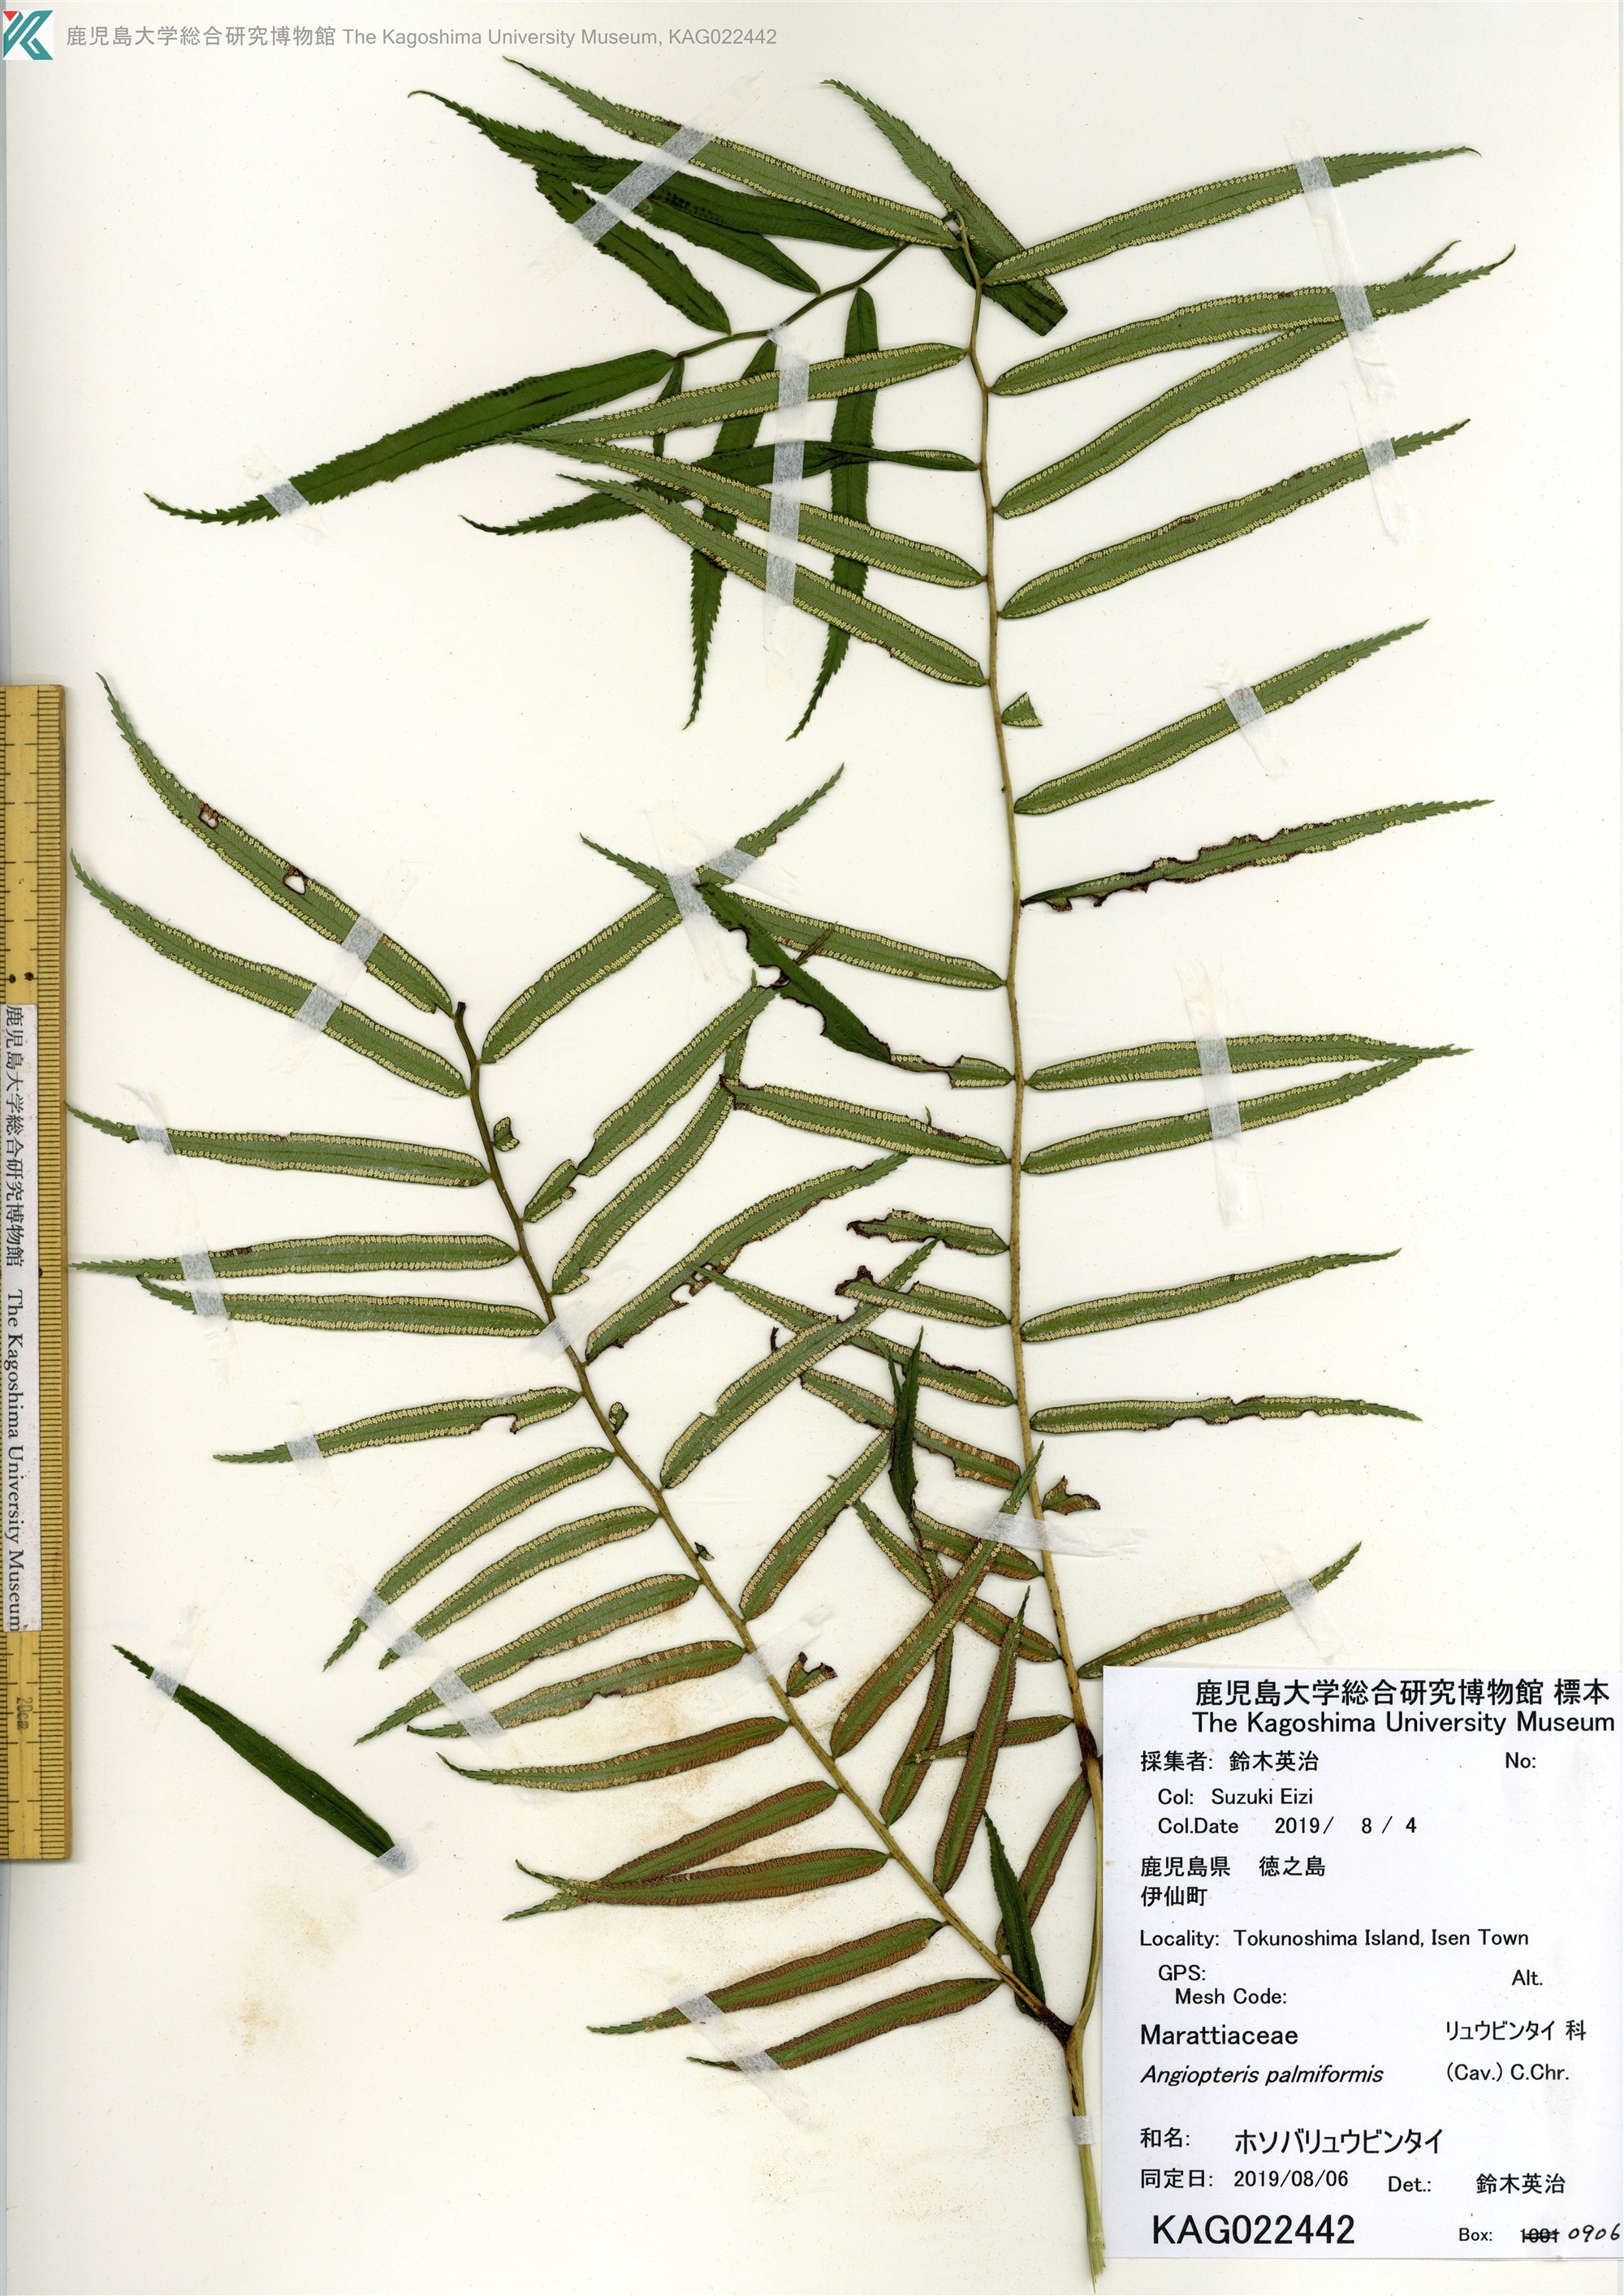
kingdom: Plantae
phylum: Tracheophyta
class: Polypodiopsida
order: Marattiales
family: Marattiaceae
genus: Angiopteris
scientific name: Angiopteris evecta
